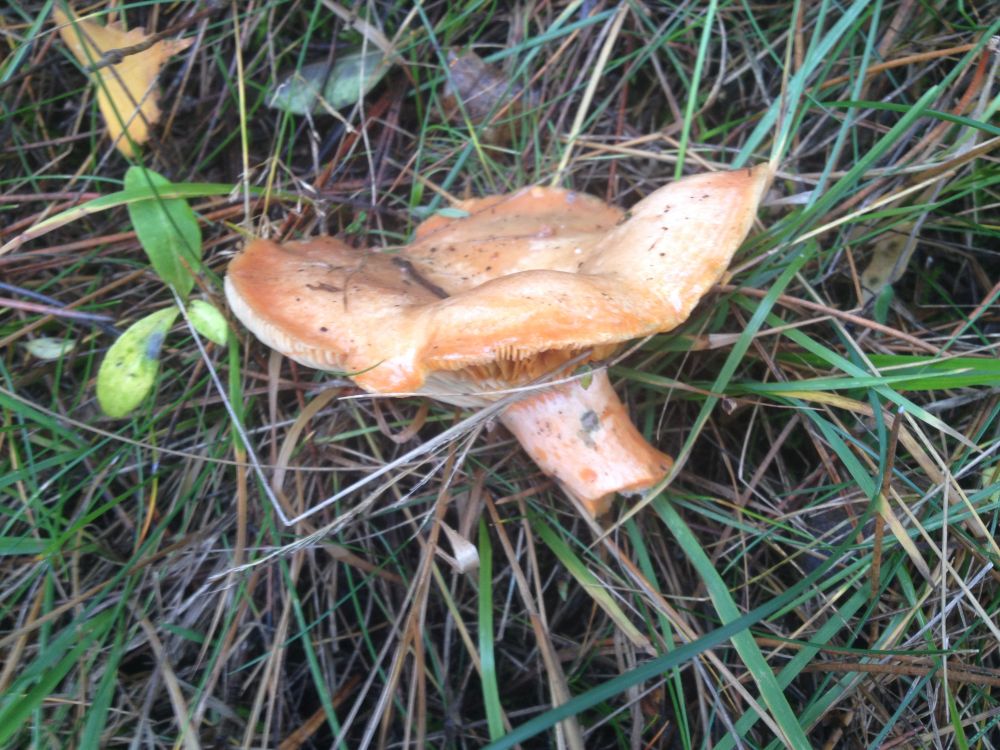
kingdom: Fungi
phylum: Basidiomycota
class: Agaricomycetes
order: Russulales
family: Russulaceae
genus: Lactarius
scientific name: Lactarius deliciosus
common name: velsmagende mælkehat
